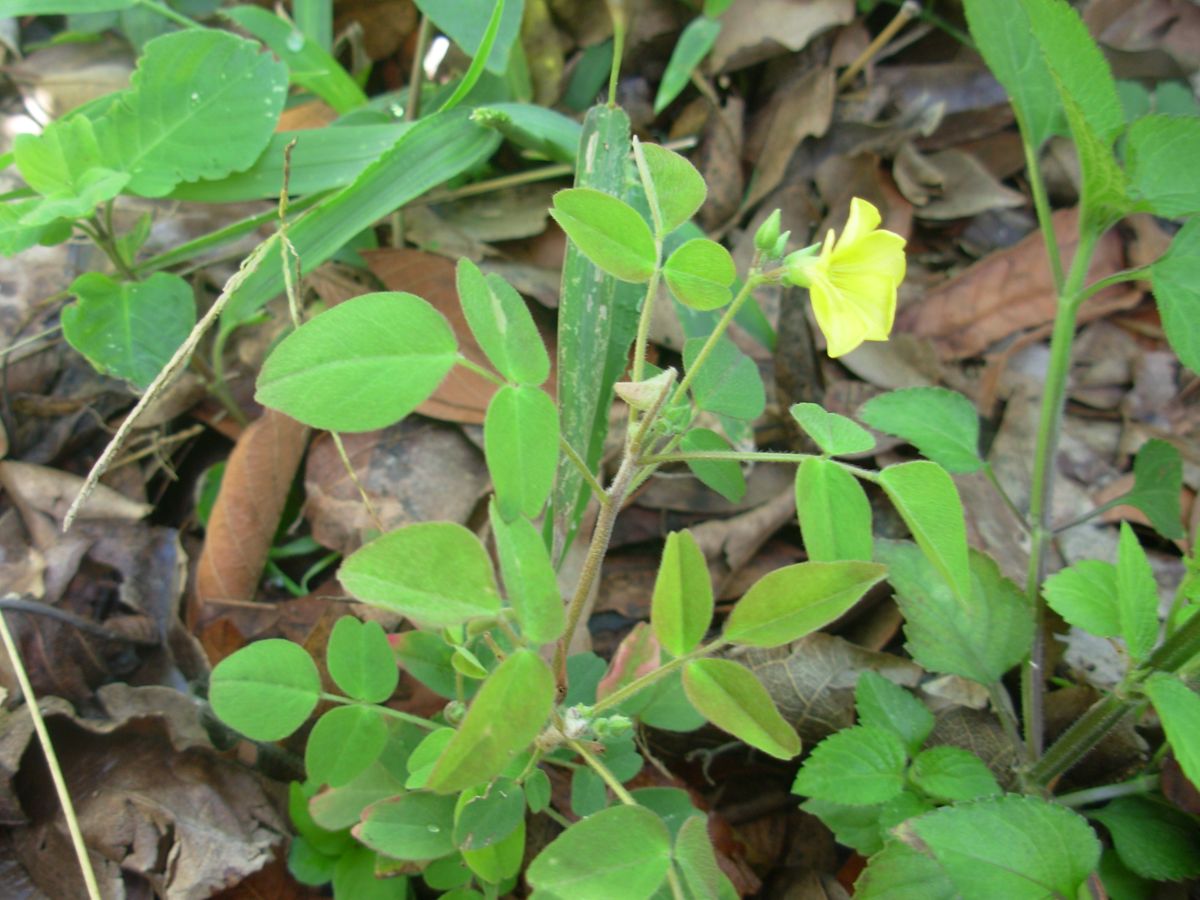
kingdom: Plantae
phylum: Tracheophyta
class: Magnoliopsida
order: Oxalidales
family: Oxalidaceae
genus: Oxalis
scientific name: Oxalis frutescens
